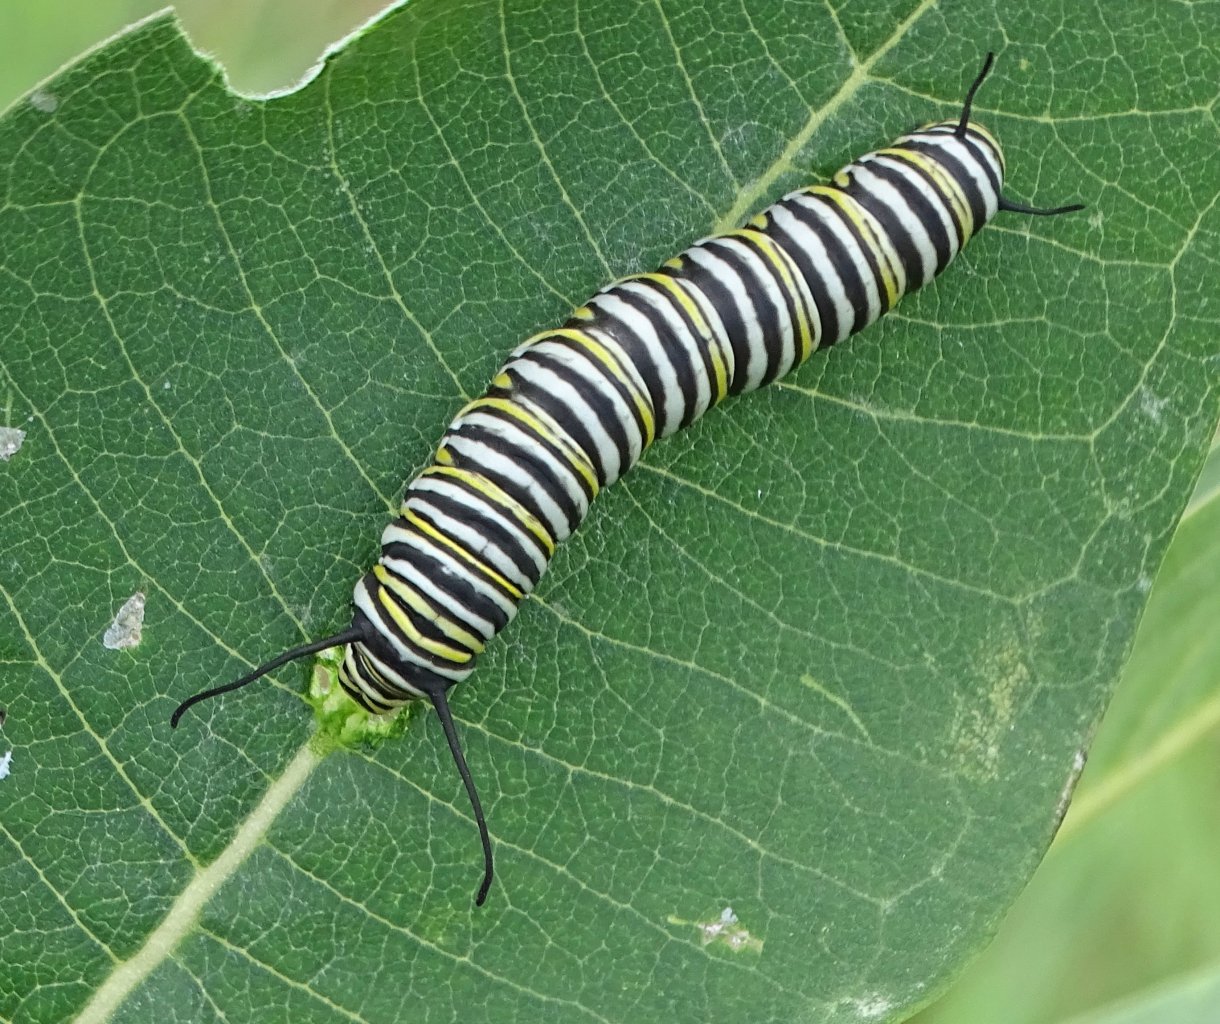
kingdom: Animalia
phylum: Arthropoda
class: Insecta
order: Lepidoptera
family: Nymphalidae
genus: Danaus
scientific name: Danaus plexippus
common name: Monarch
